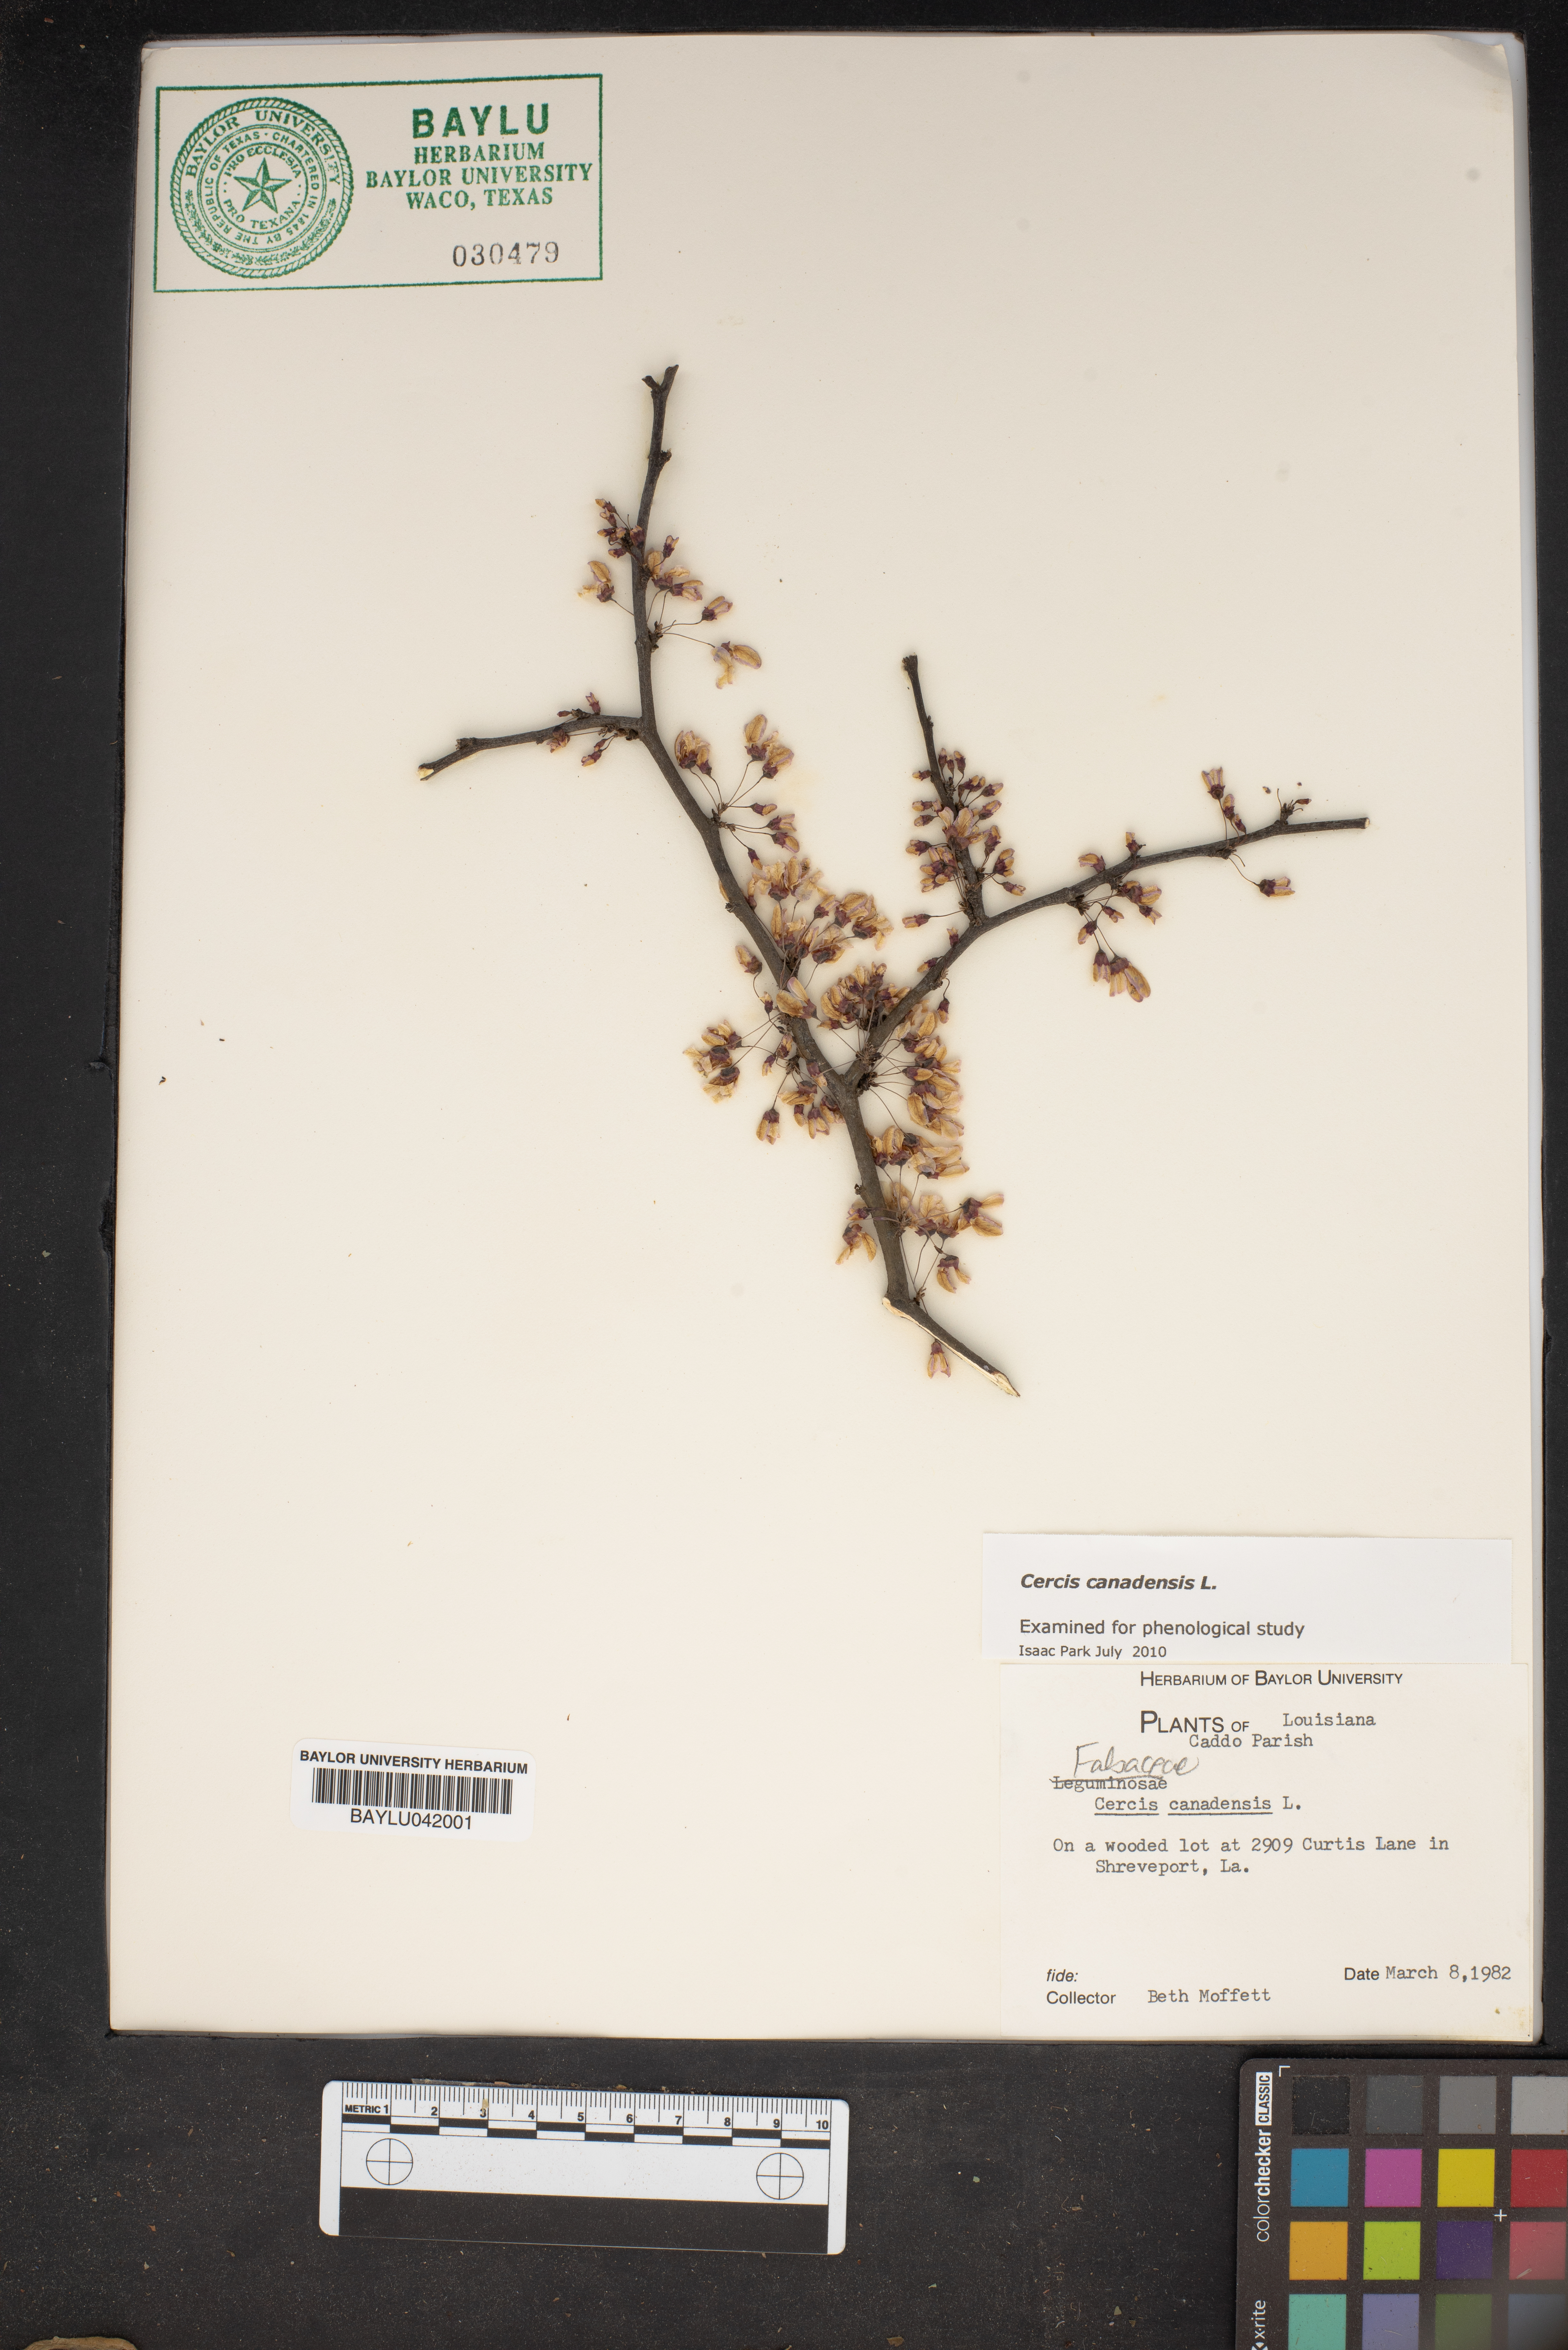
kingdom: Plantae
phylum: Tracheophyta
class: Magnoliopsida
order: Fabales
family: Fabaceae
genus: Cercis
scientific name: Cercis canadensis
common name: Eastern redbud
